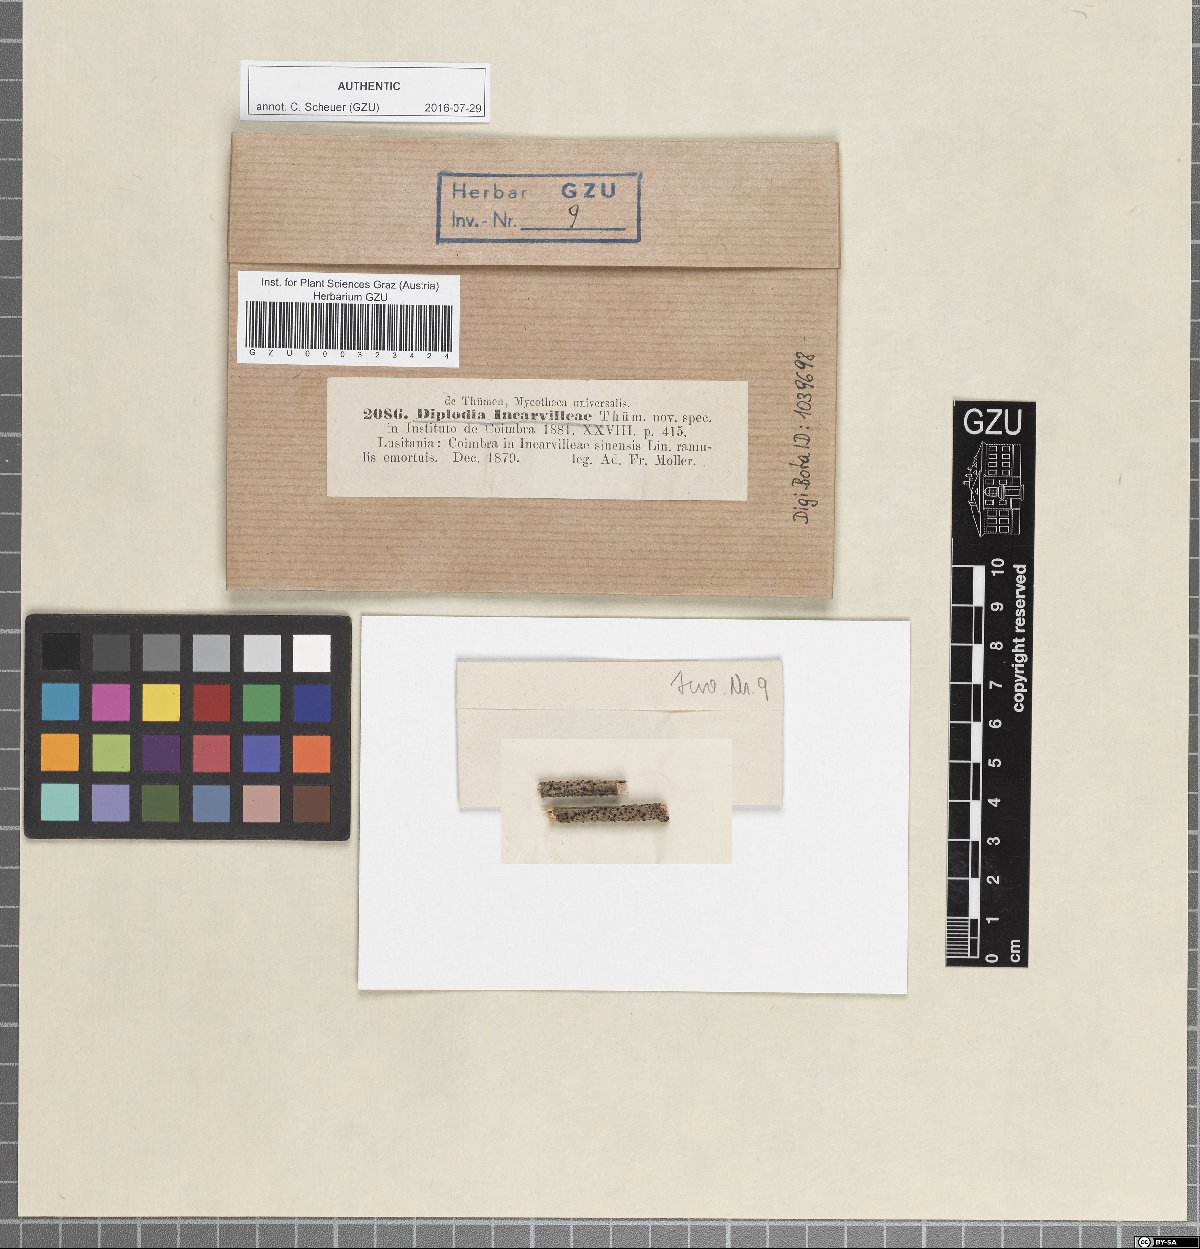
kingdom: Fungi
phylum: Ascomycota
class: Dothideomycetes
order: Botryosphaeriales
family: Botryosphaeriaceae
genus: Diplodia
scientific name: Diplodia
